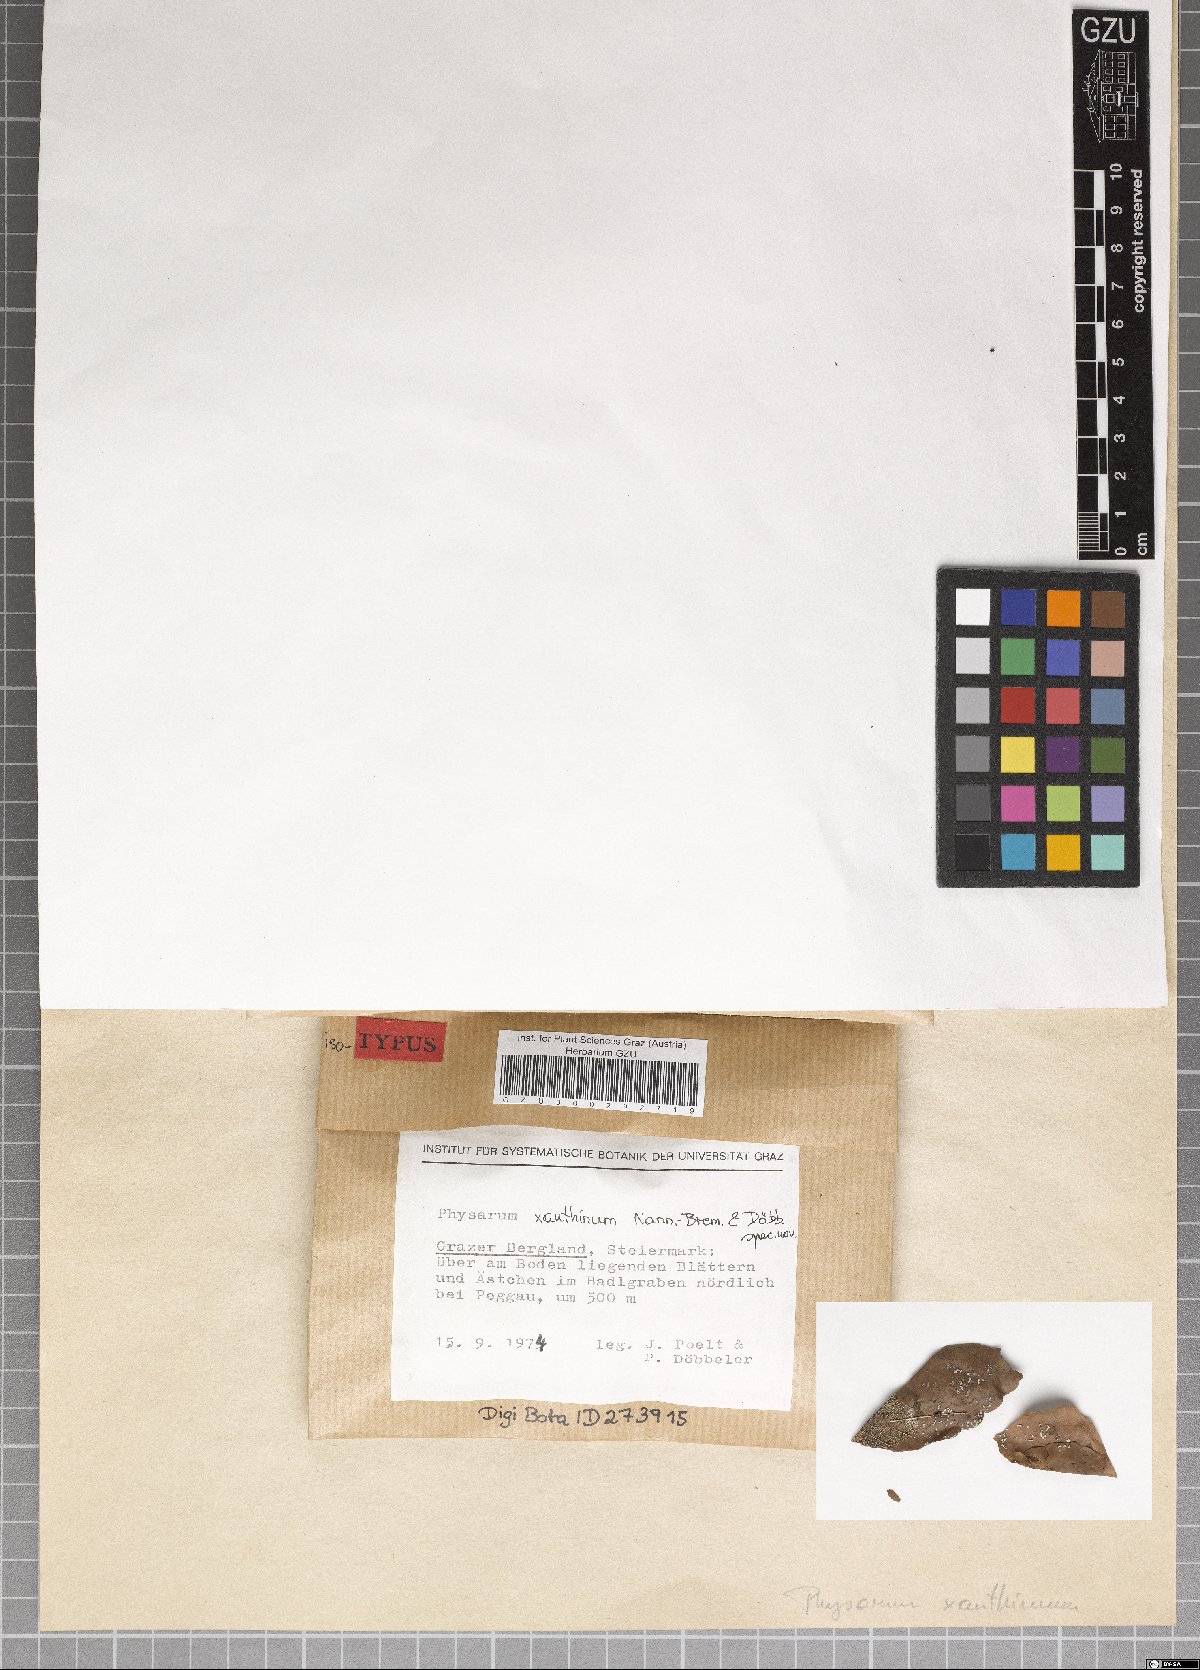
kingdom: Protozoa
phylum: Mycetozoa
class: Myxomycetes
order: Physarales
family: Physaraceae
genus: Physarum
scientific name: Physarum xanthinum
